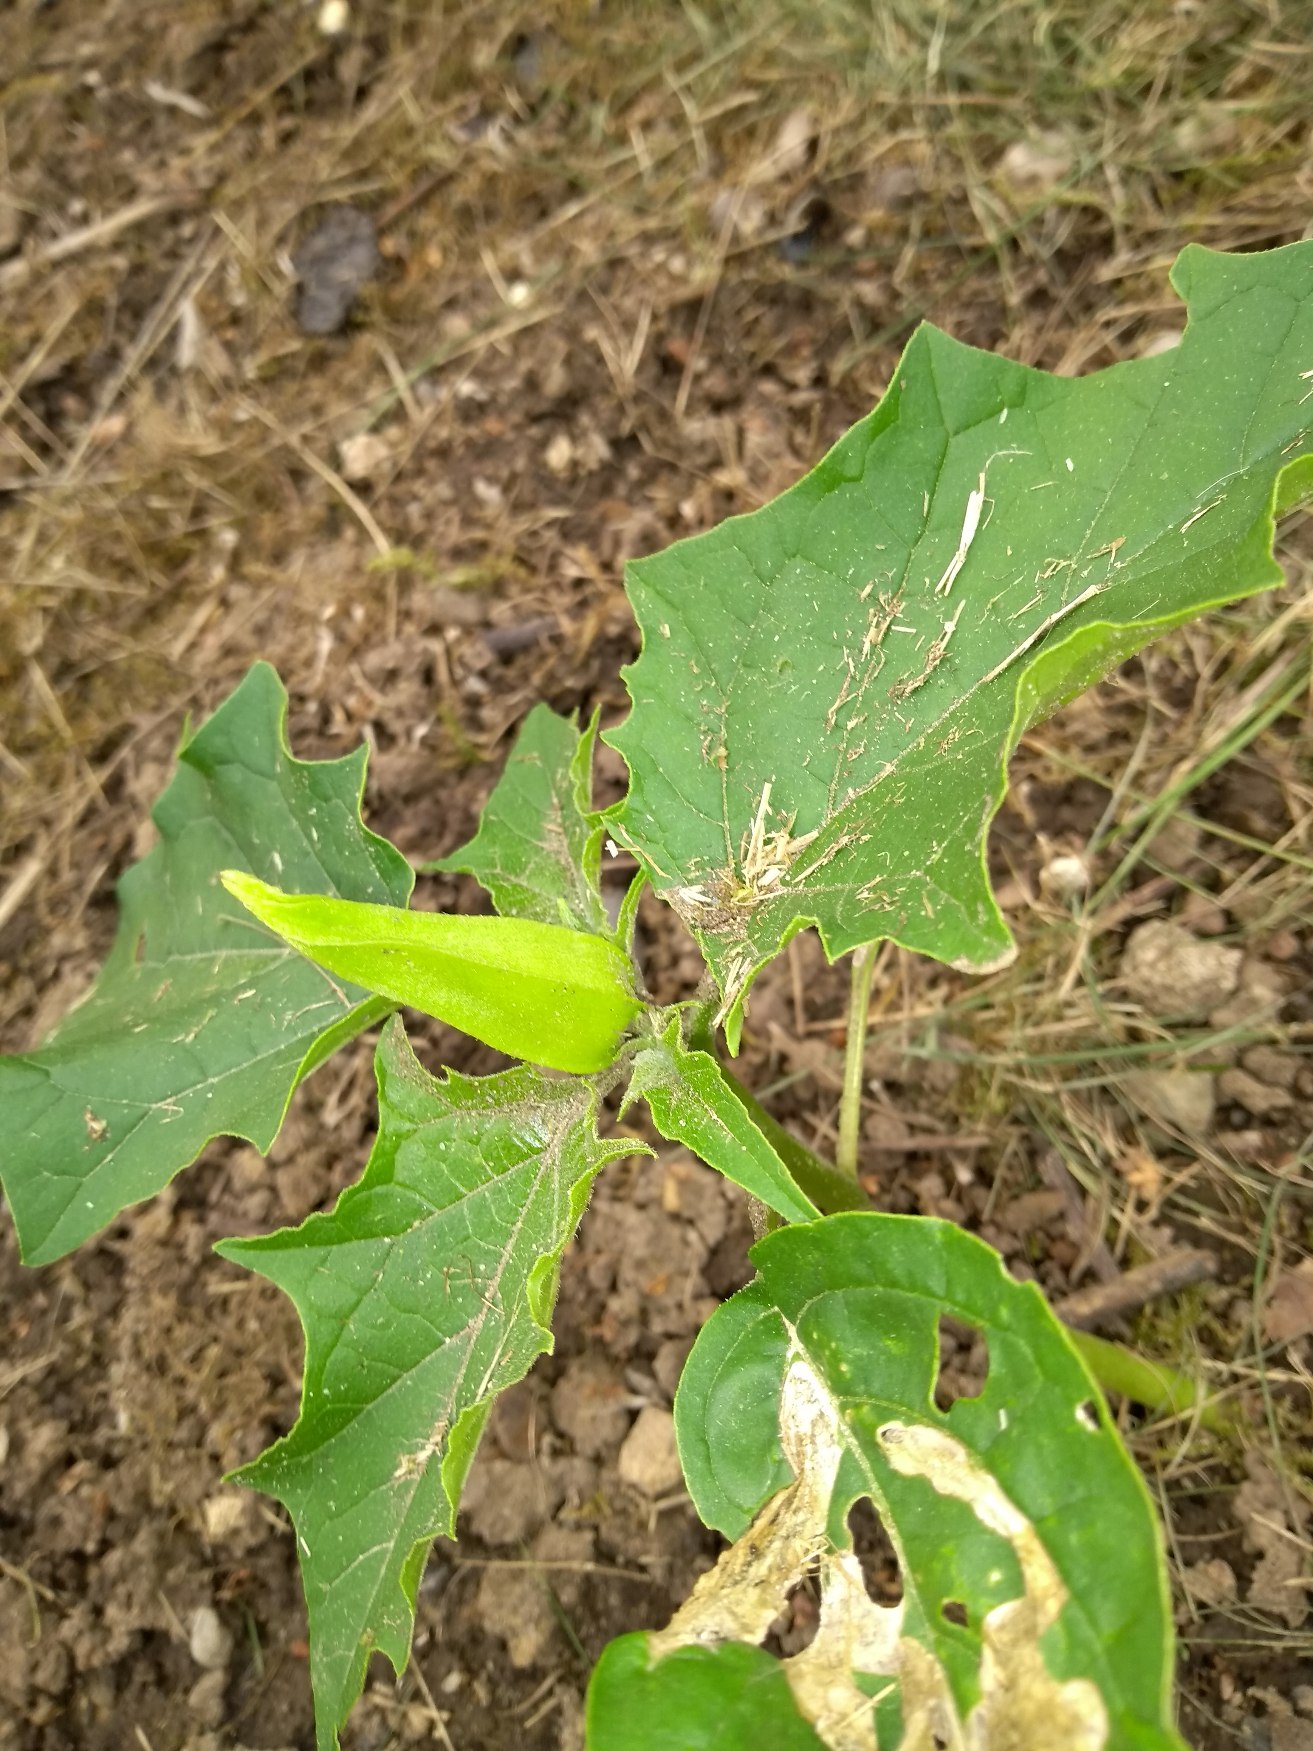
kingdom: Plantae
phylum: Tracheophyta
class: Magnoliopsida
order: Solanales
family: Solanaceae
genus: Datura
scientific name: Datura stramonium
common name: Pigæble
